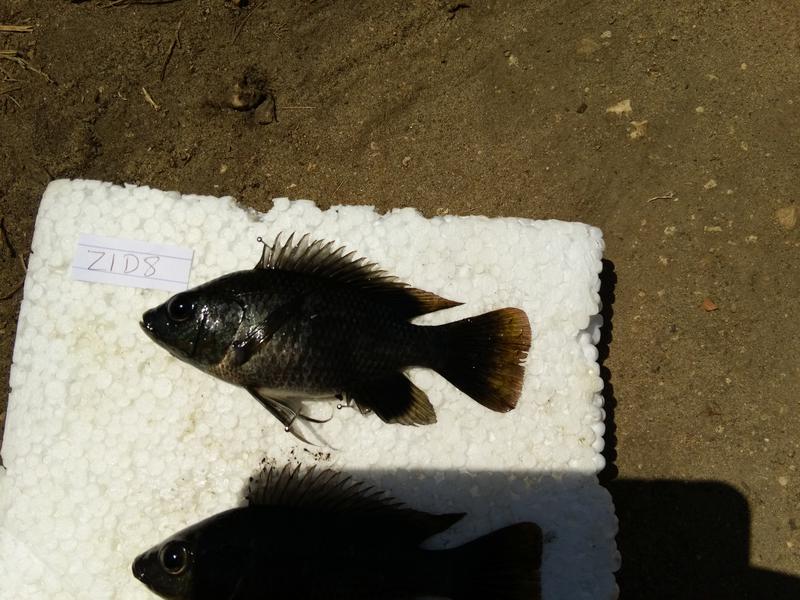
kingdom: Animalia
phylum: Chordata
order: Perciformes
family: Cichlidae
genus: Oreochromis
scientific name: Oreochromis urolepis
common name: Wami tilapia
